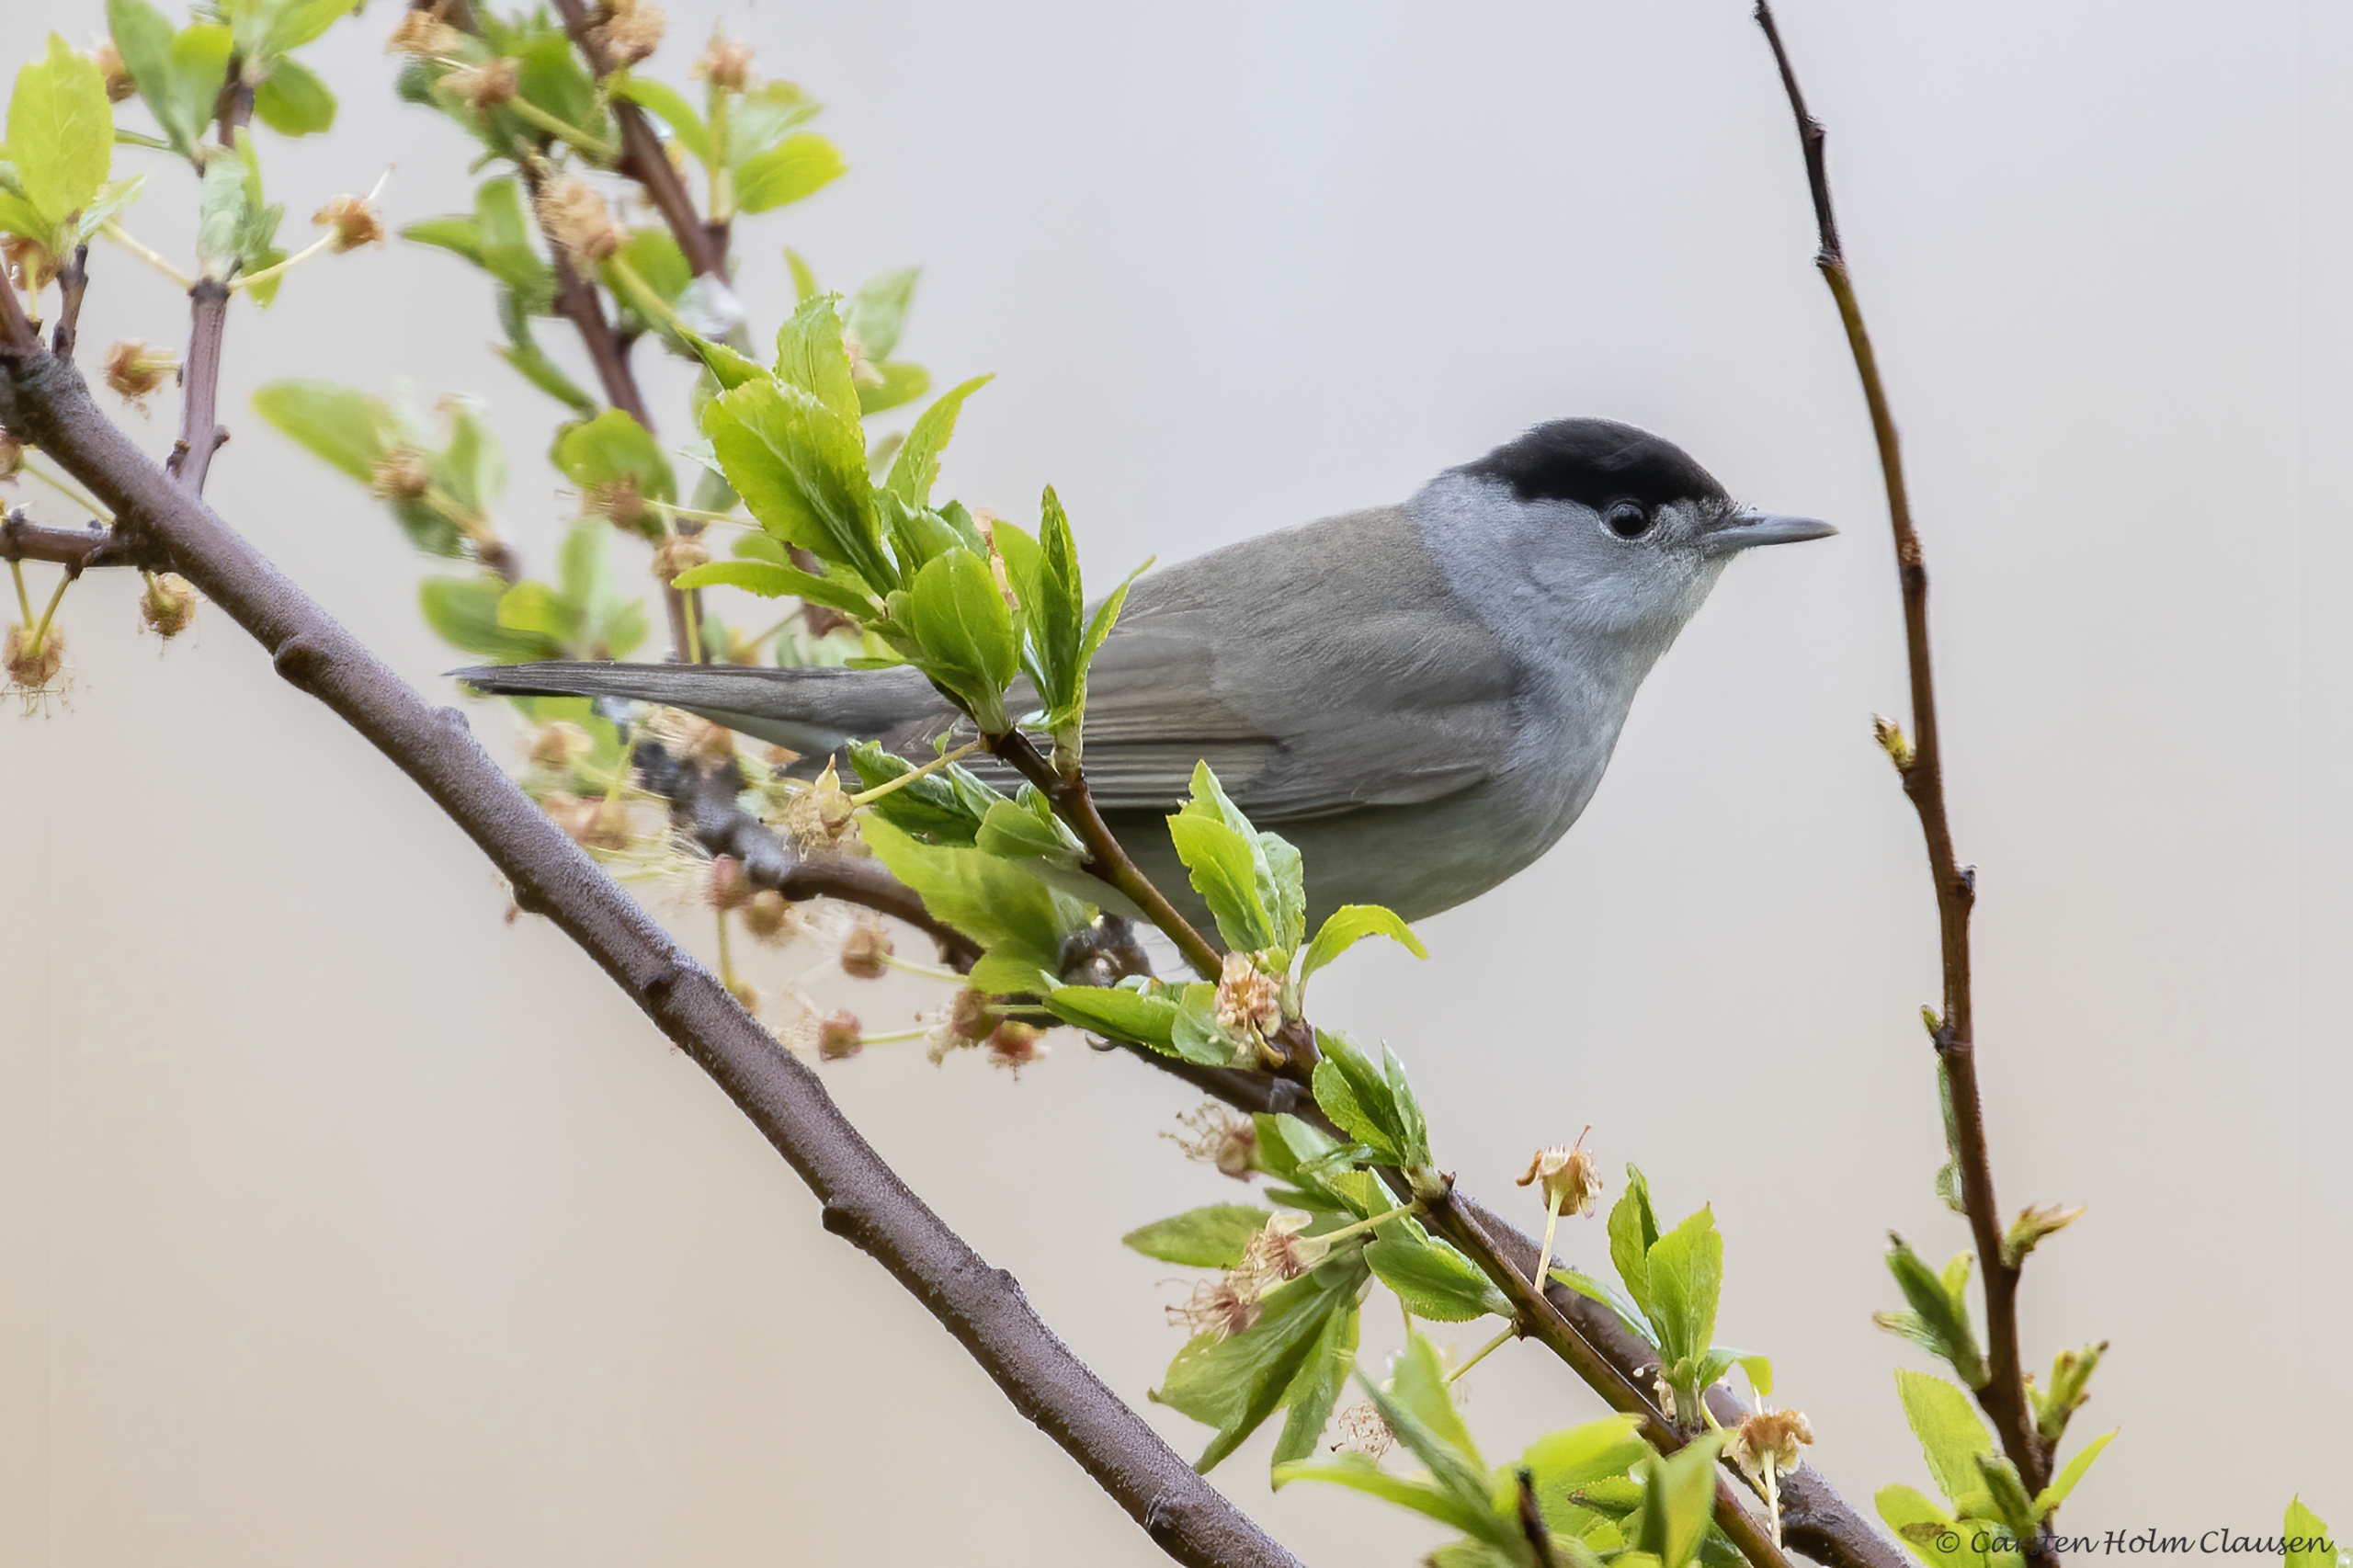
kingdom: Animalia
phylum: Chordata
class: Aves
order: Passeriformes
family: Sylviidae
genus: Sylvia
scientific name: Sylvia atricapilla
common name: Munk
